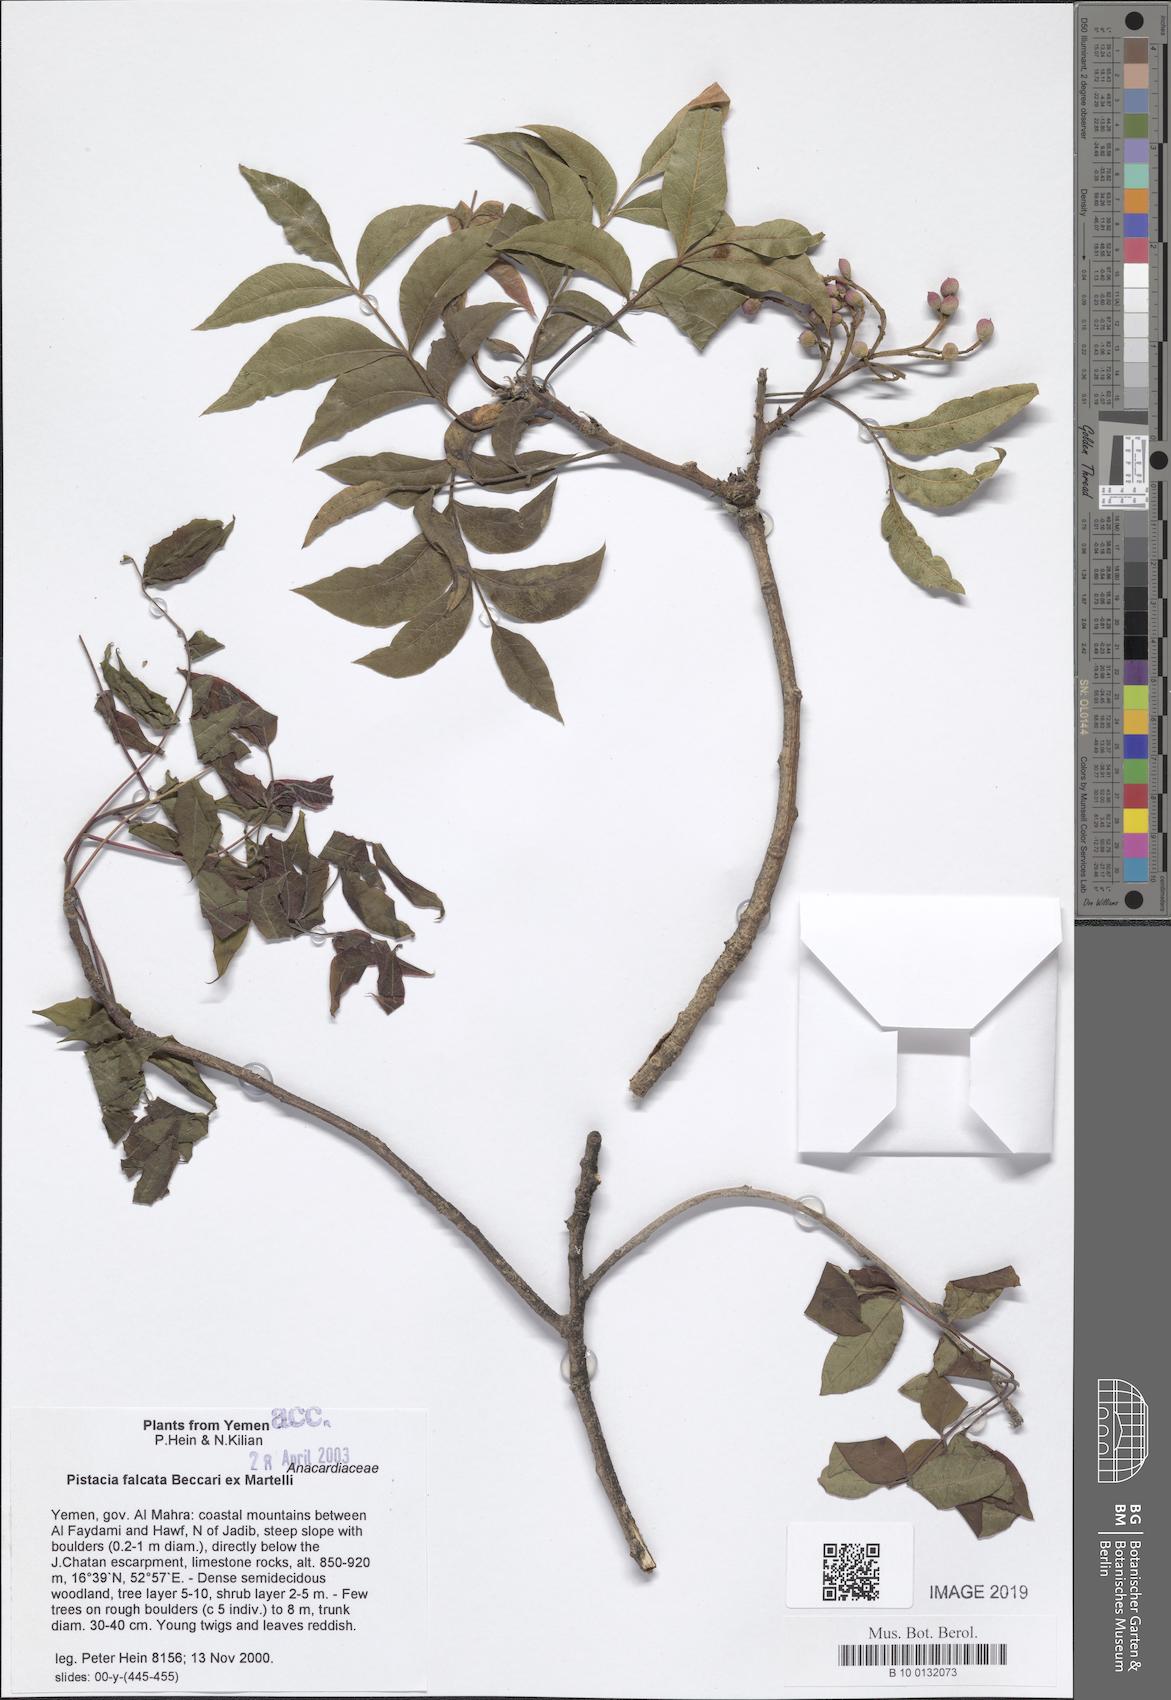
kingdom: Plantae
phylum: Tracheophyta
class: Magnoliopsida
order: Sapindales
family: Anacardiaceae
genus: Pistacia
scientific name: Pistacia falcata
